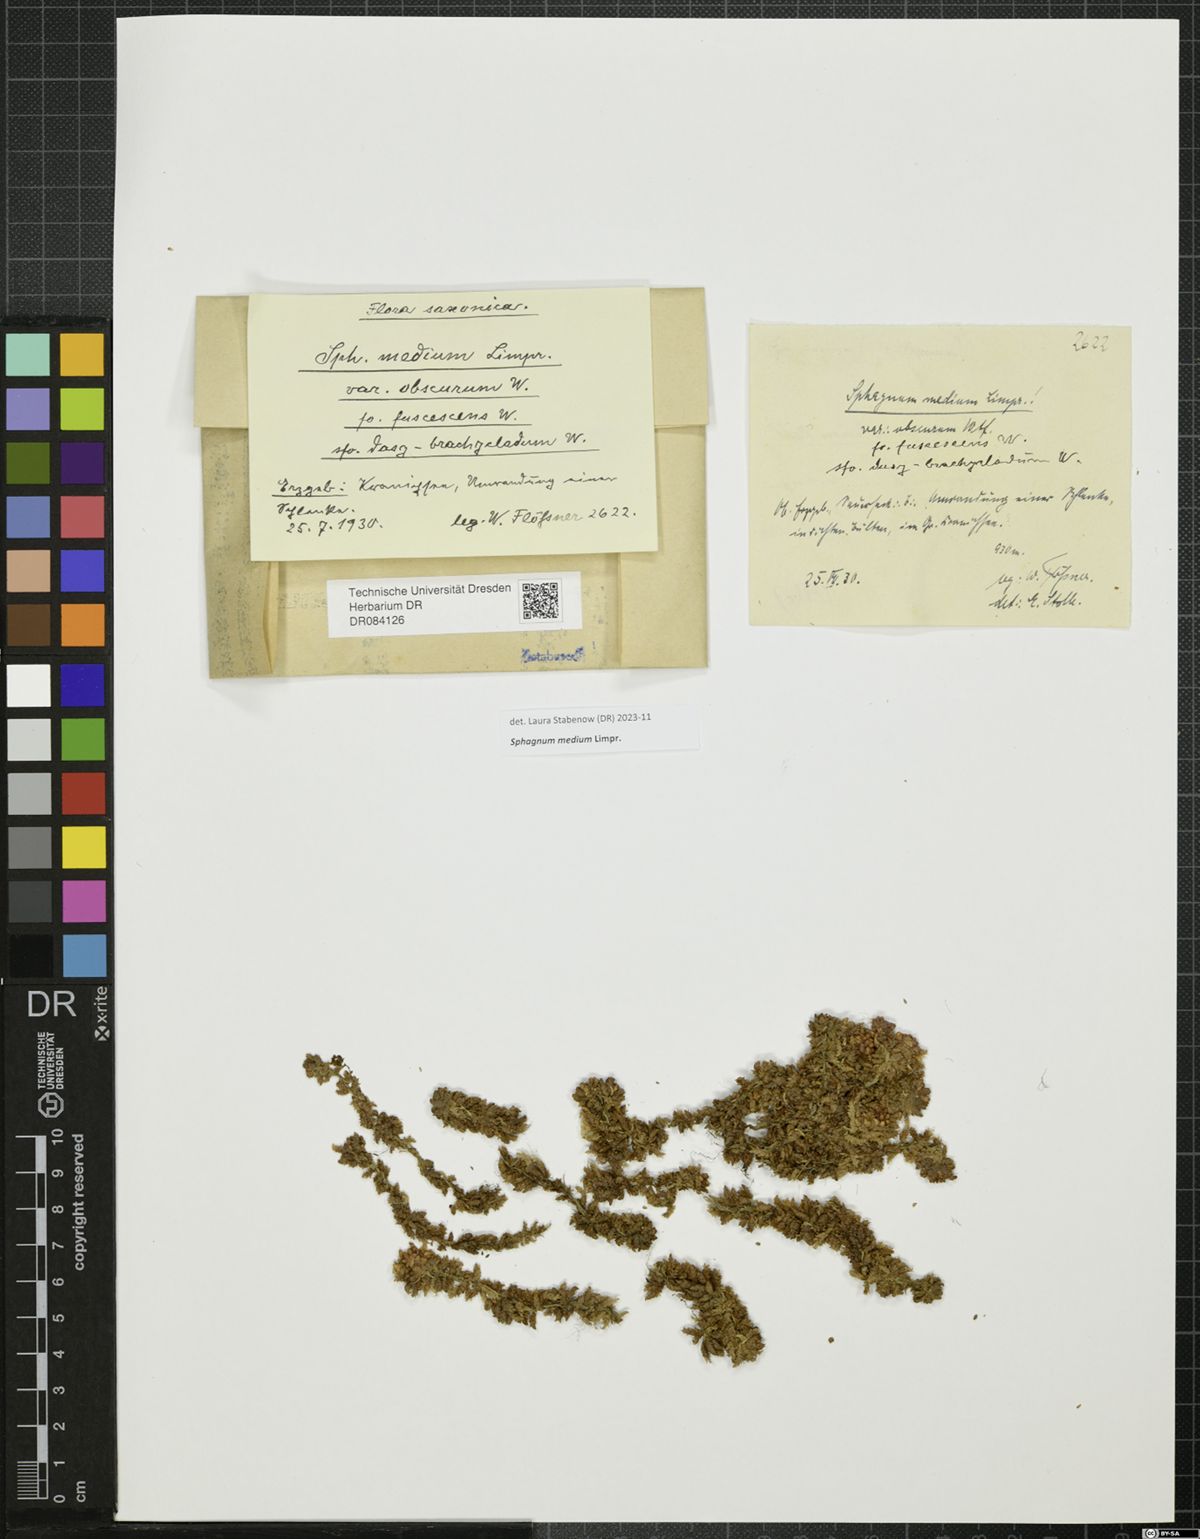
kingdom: Plantae
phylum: Bryophyta
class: Sphagnopsida
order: Sphagnales
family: Sphagnaceae
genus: Sphagnum
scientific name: Sphagnum medium
